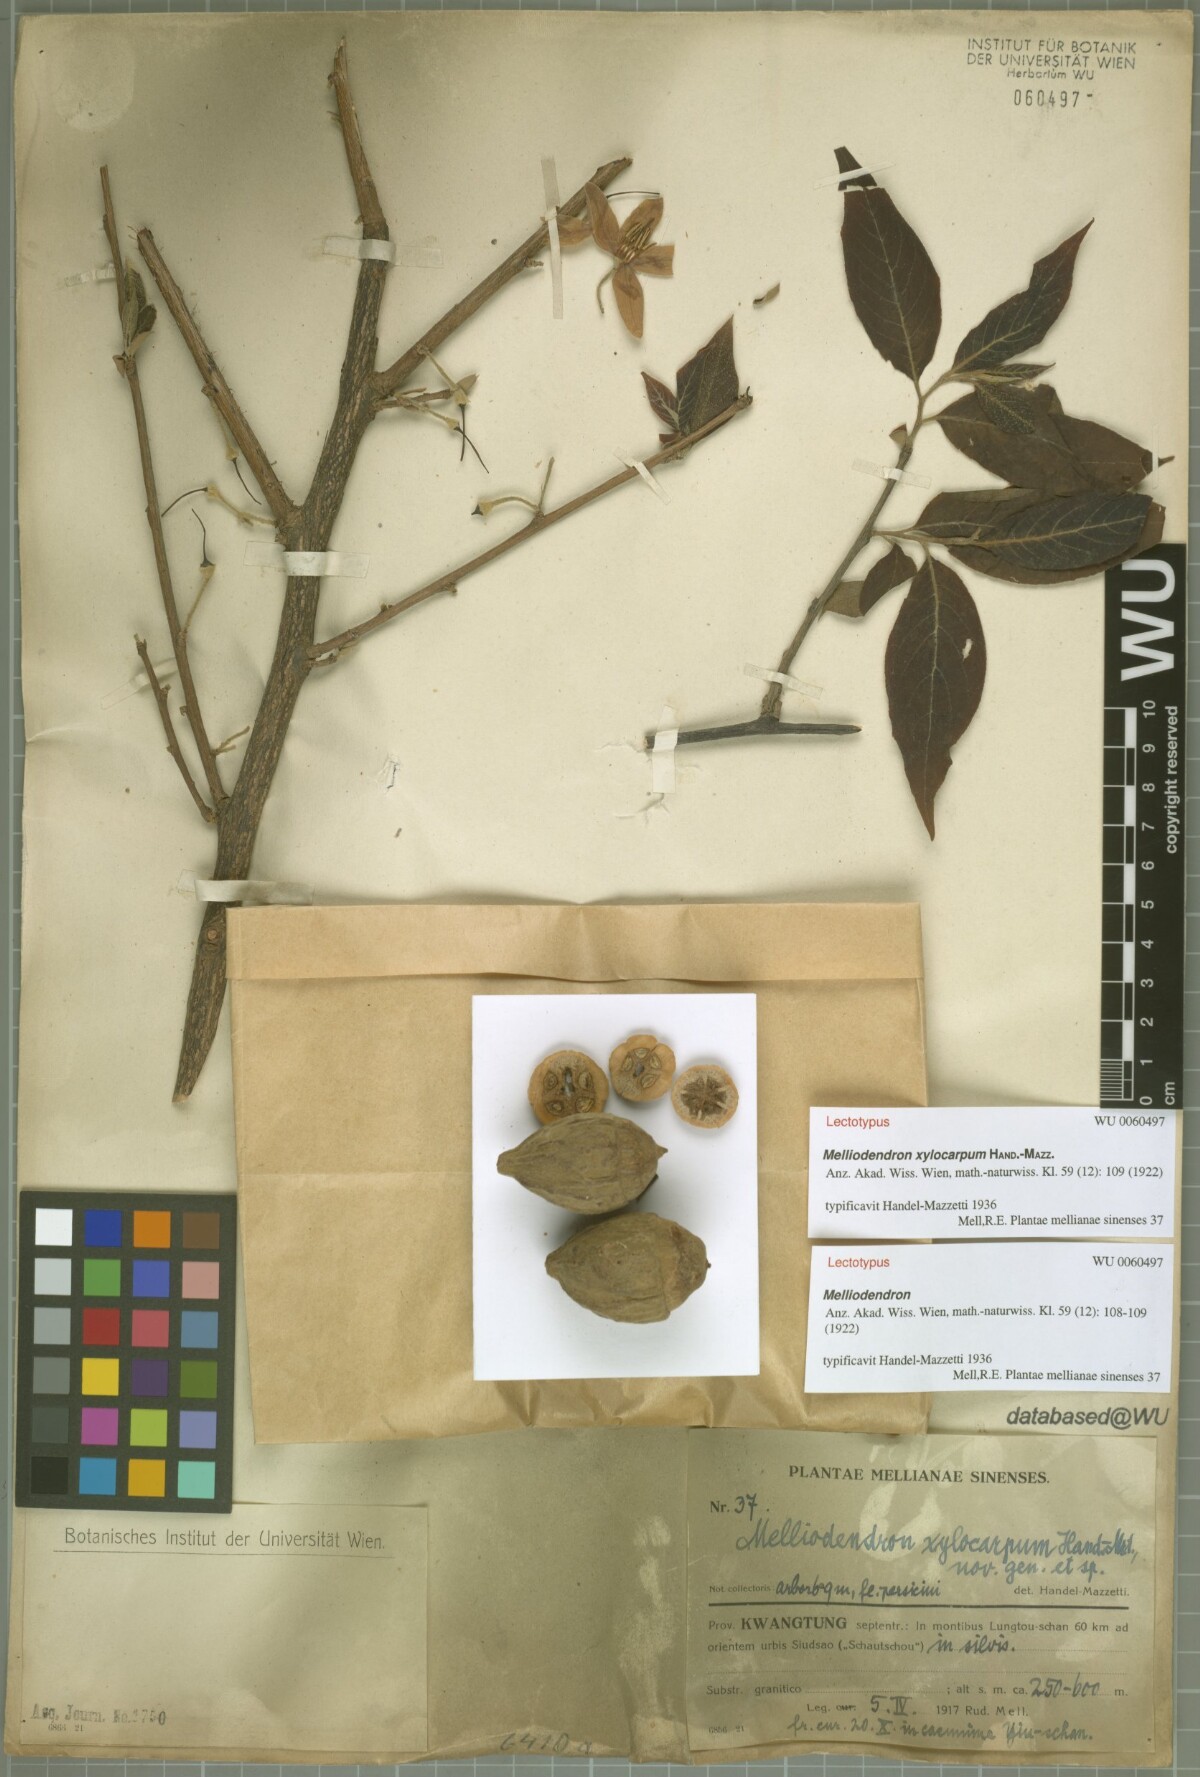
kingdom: Plantae
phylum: Tracheophyta
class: Magnoliopsida
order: Ericales
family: Styracaceae
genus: Melliodendron
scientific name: Melliodendron xylocarpum
